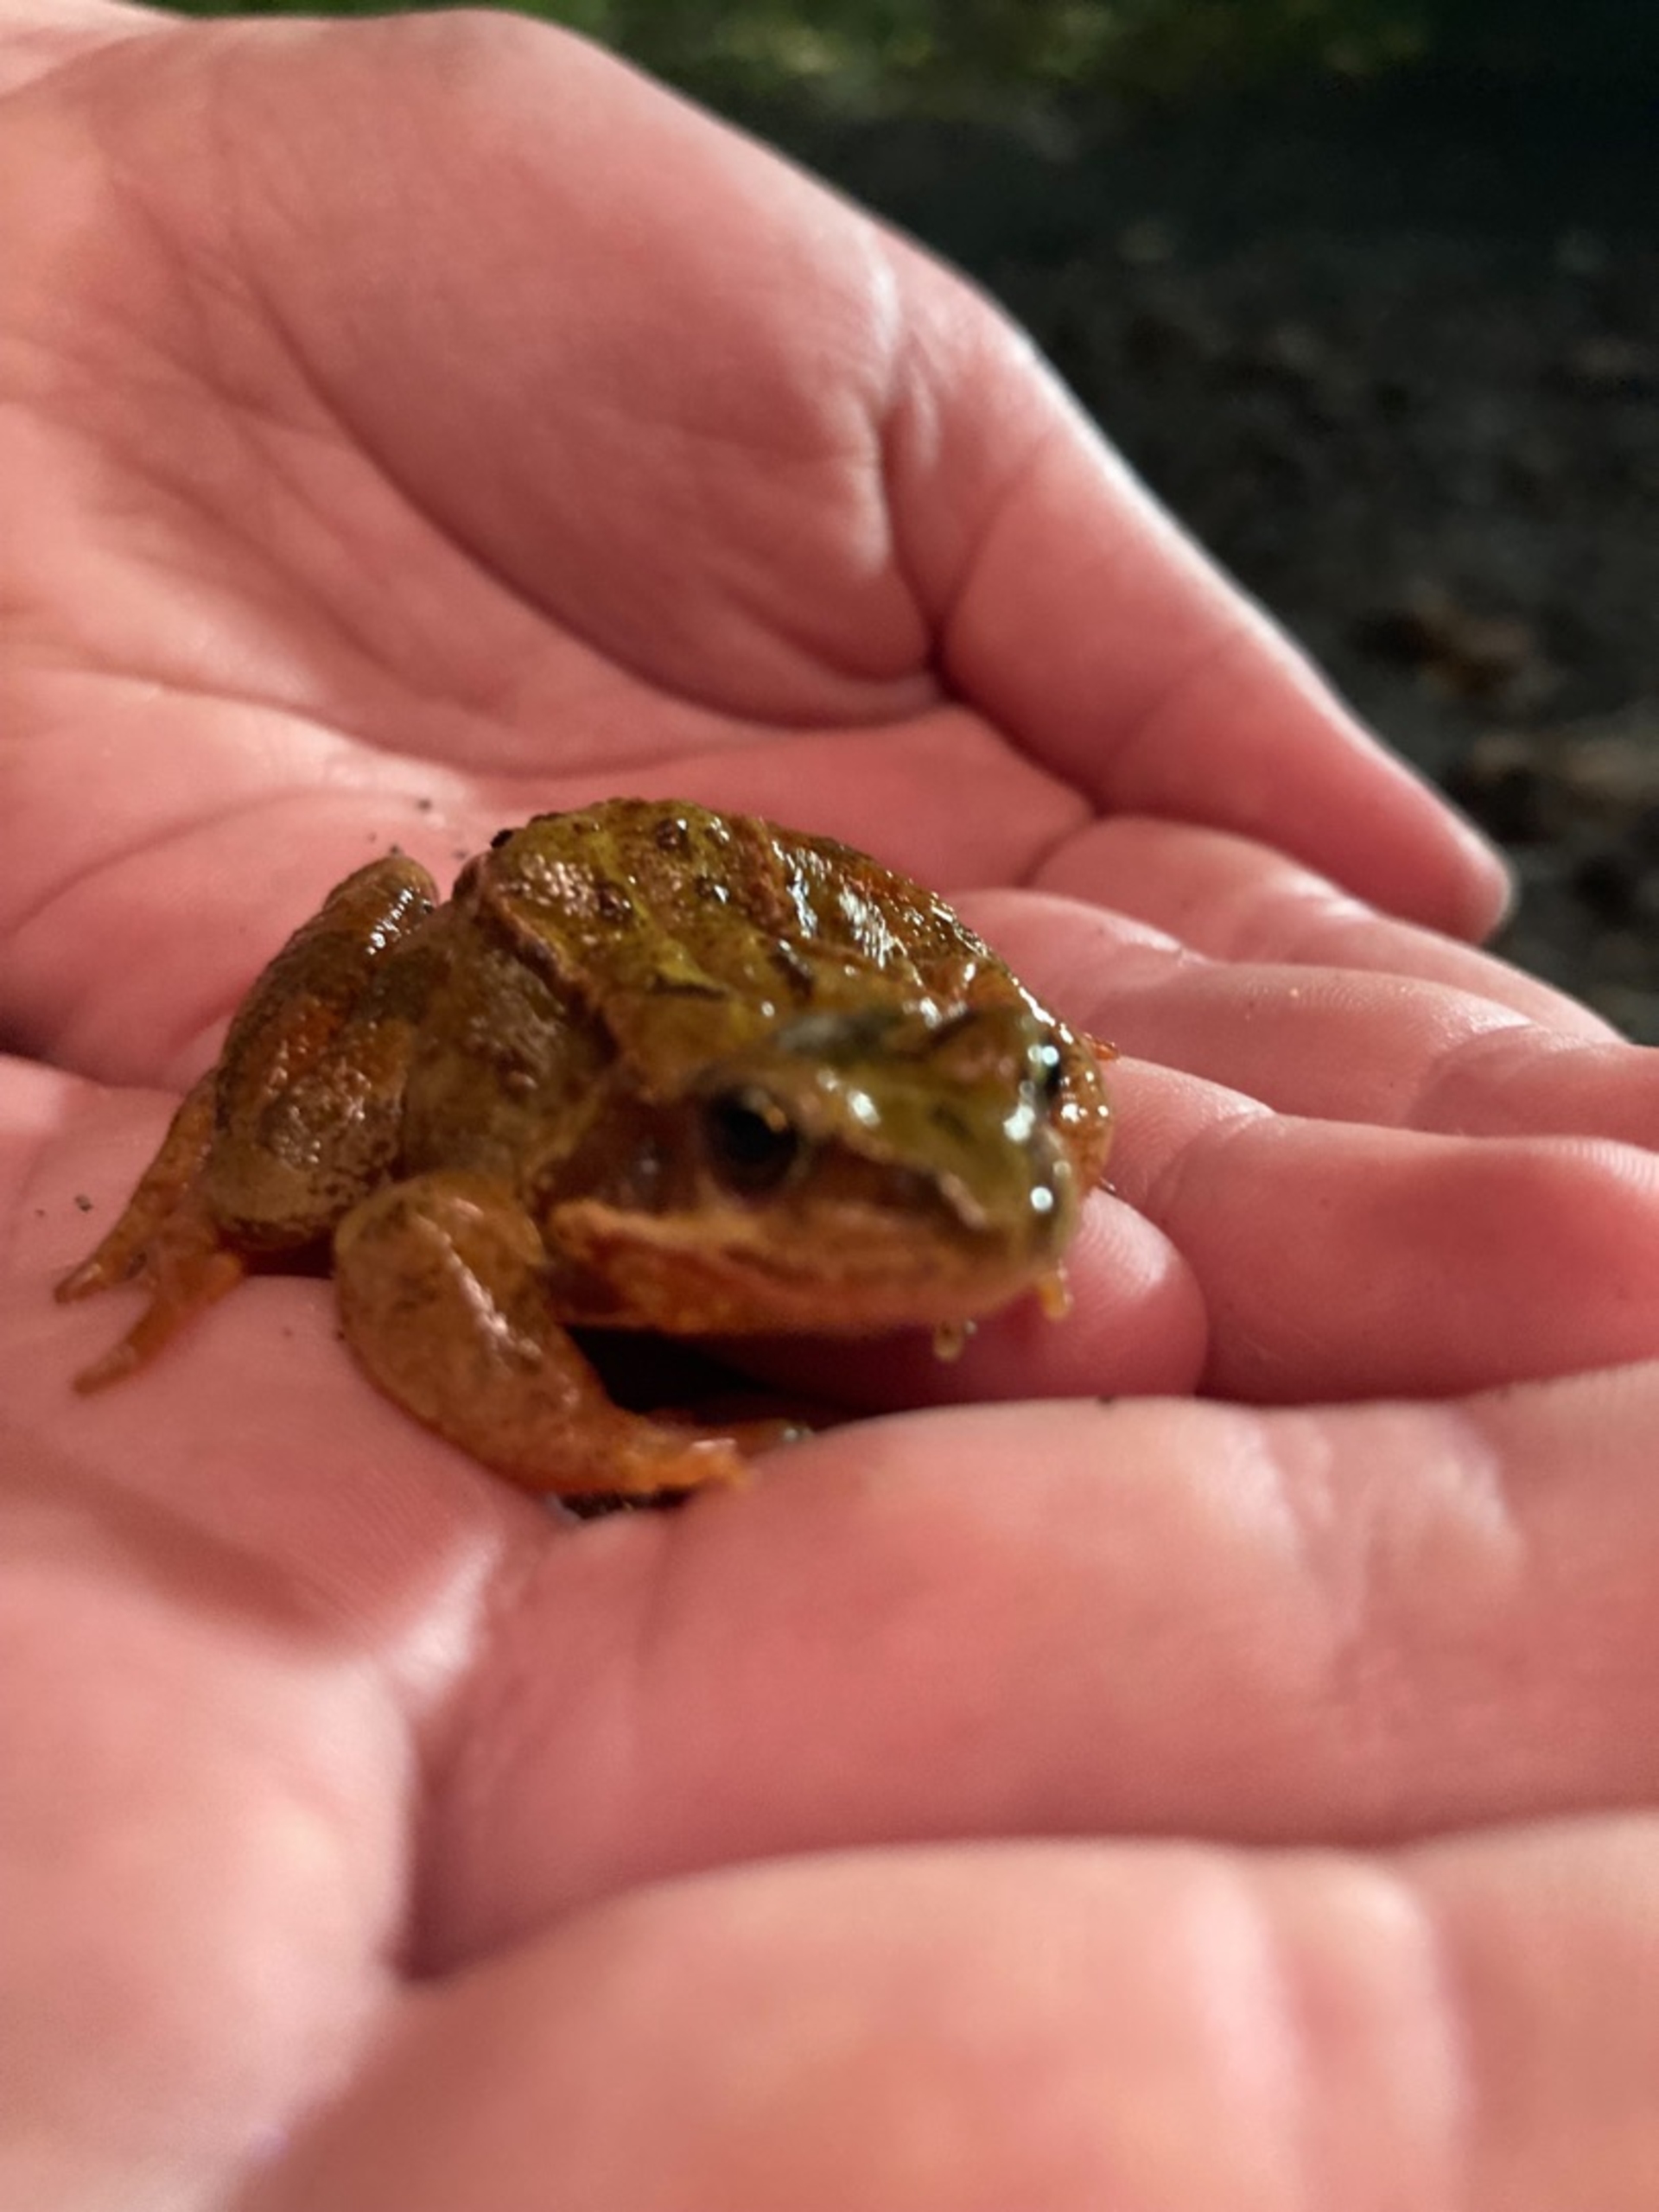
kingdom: Animalia
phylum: Chordata
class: Amphibia
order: Anura
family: Ranidae
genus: Rana
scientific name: Rana temporaria
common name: Butsnudet frø
